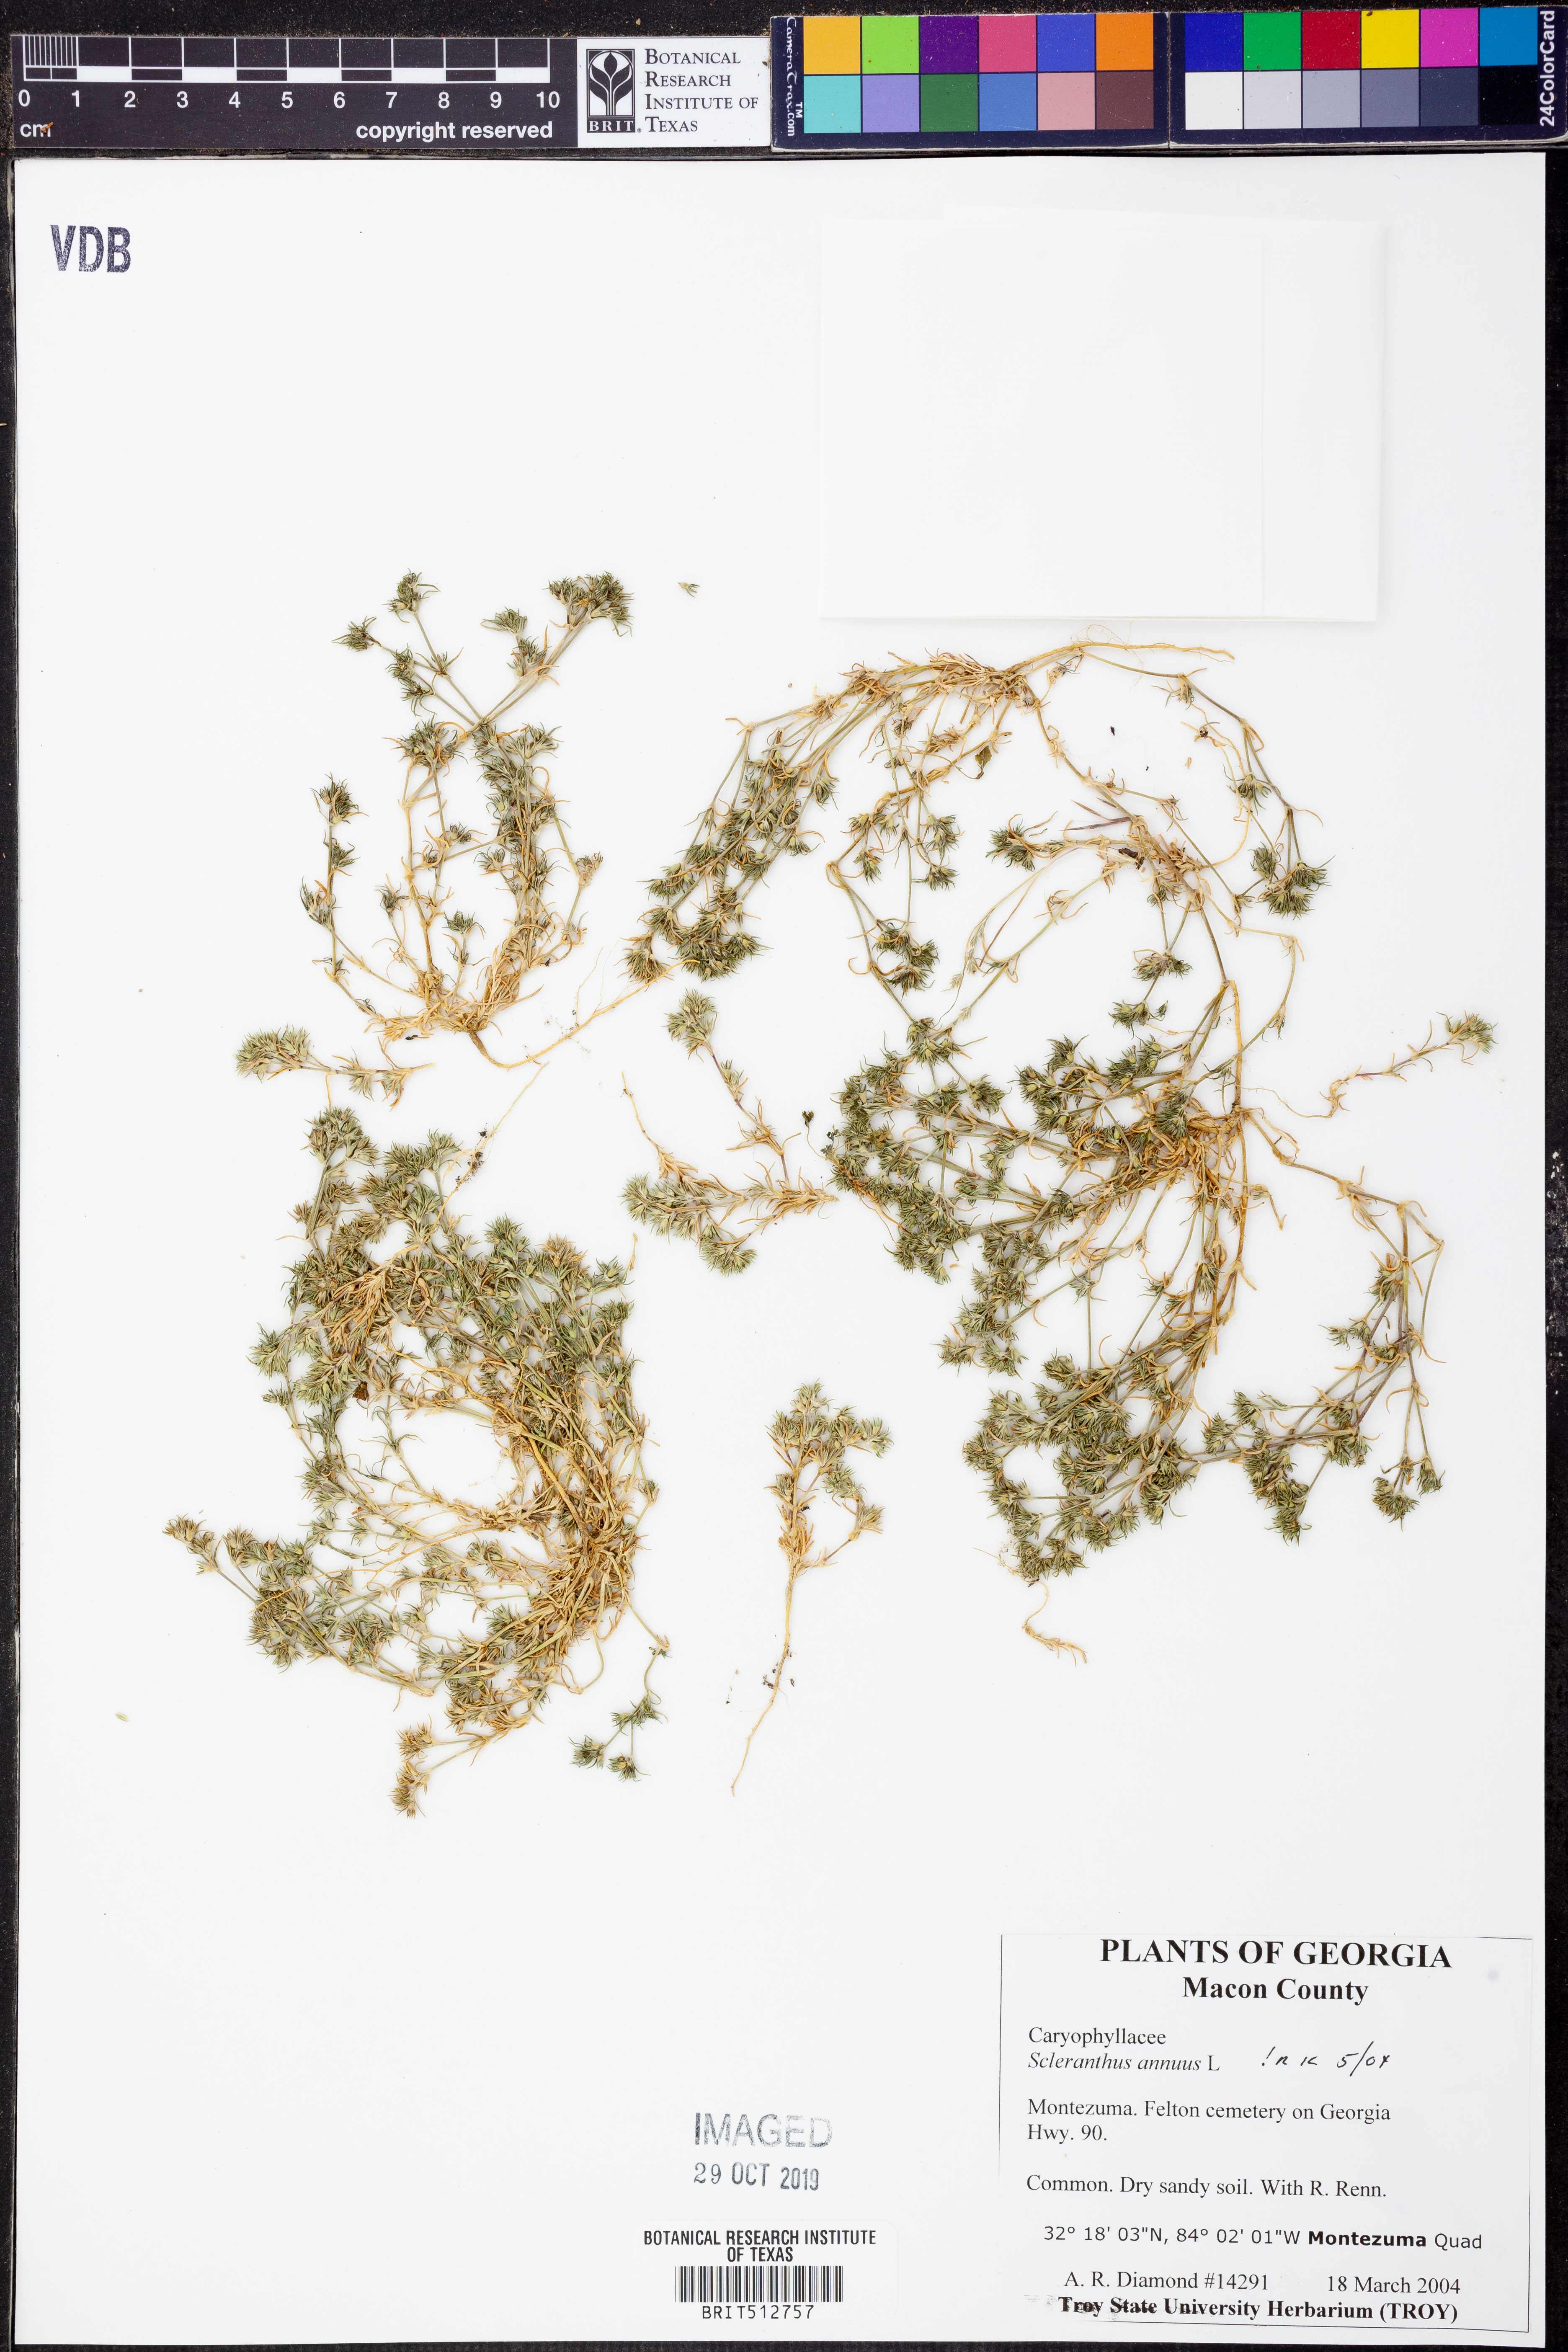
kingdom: Plantae
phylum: Tracheophyta
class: Magnoliopsida
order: Caryophyllales
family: Caryophyllaceae
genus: Scleranthus
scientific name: Scleranthus annuus
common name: Annual knawel
